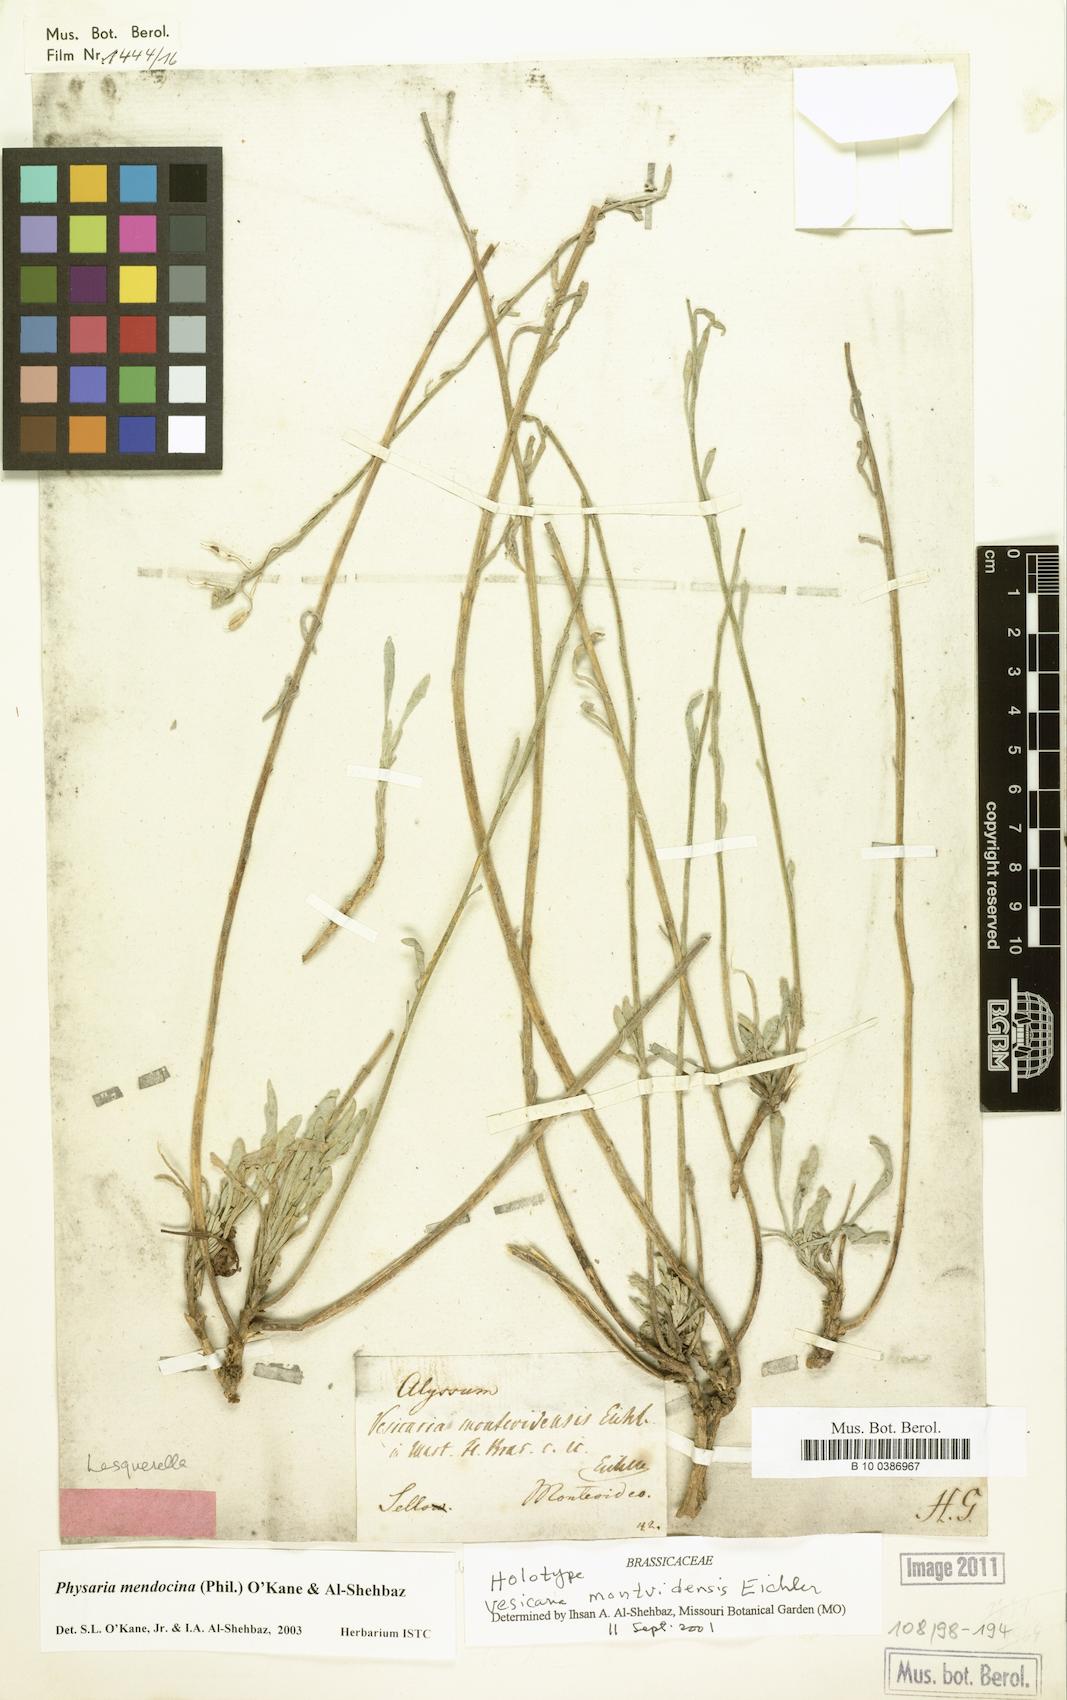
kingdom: Plantae
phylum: Tracheophyta
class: Magnoliopsida
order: Brassicales
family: Brassicaceae
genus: Physaria
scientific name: Physaria mendocina
